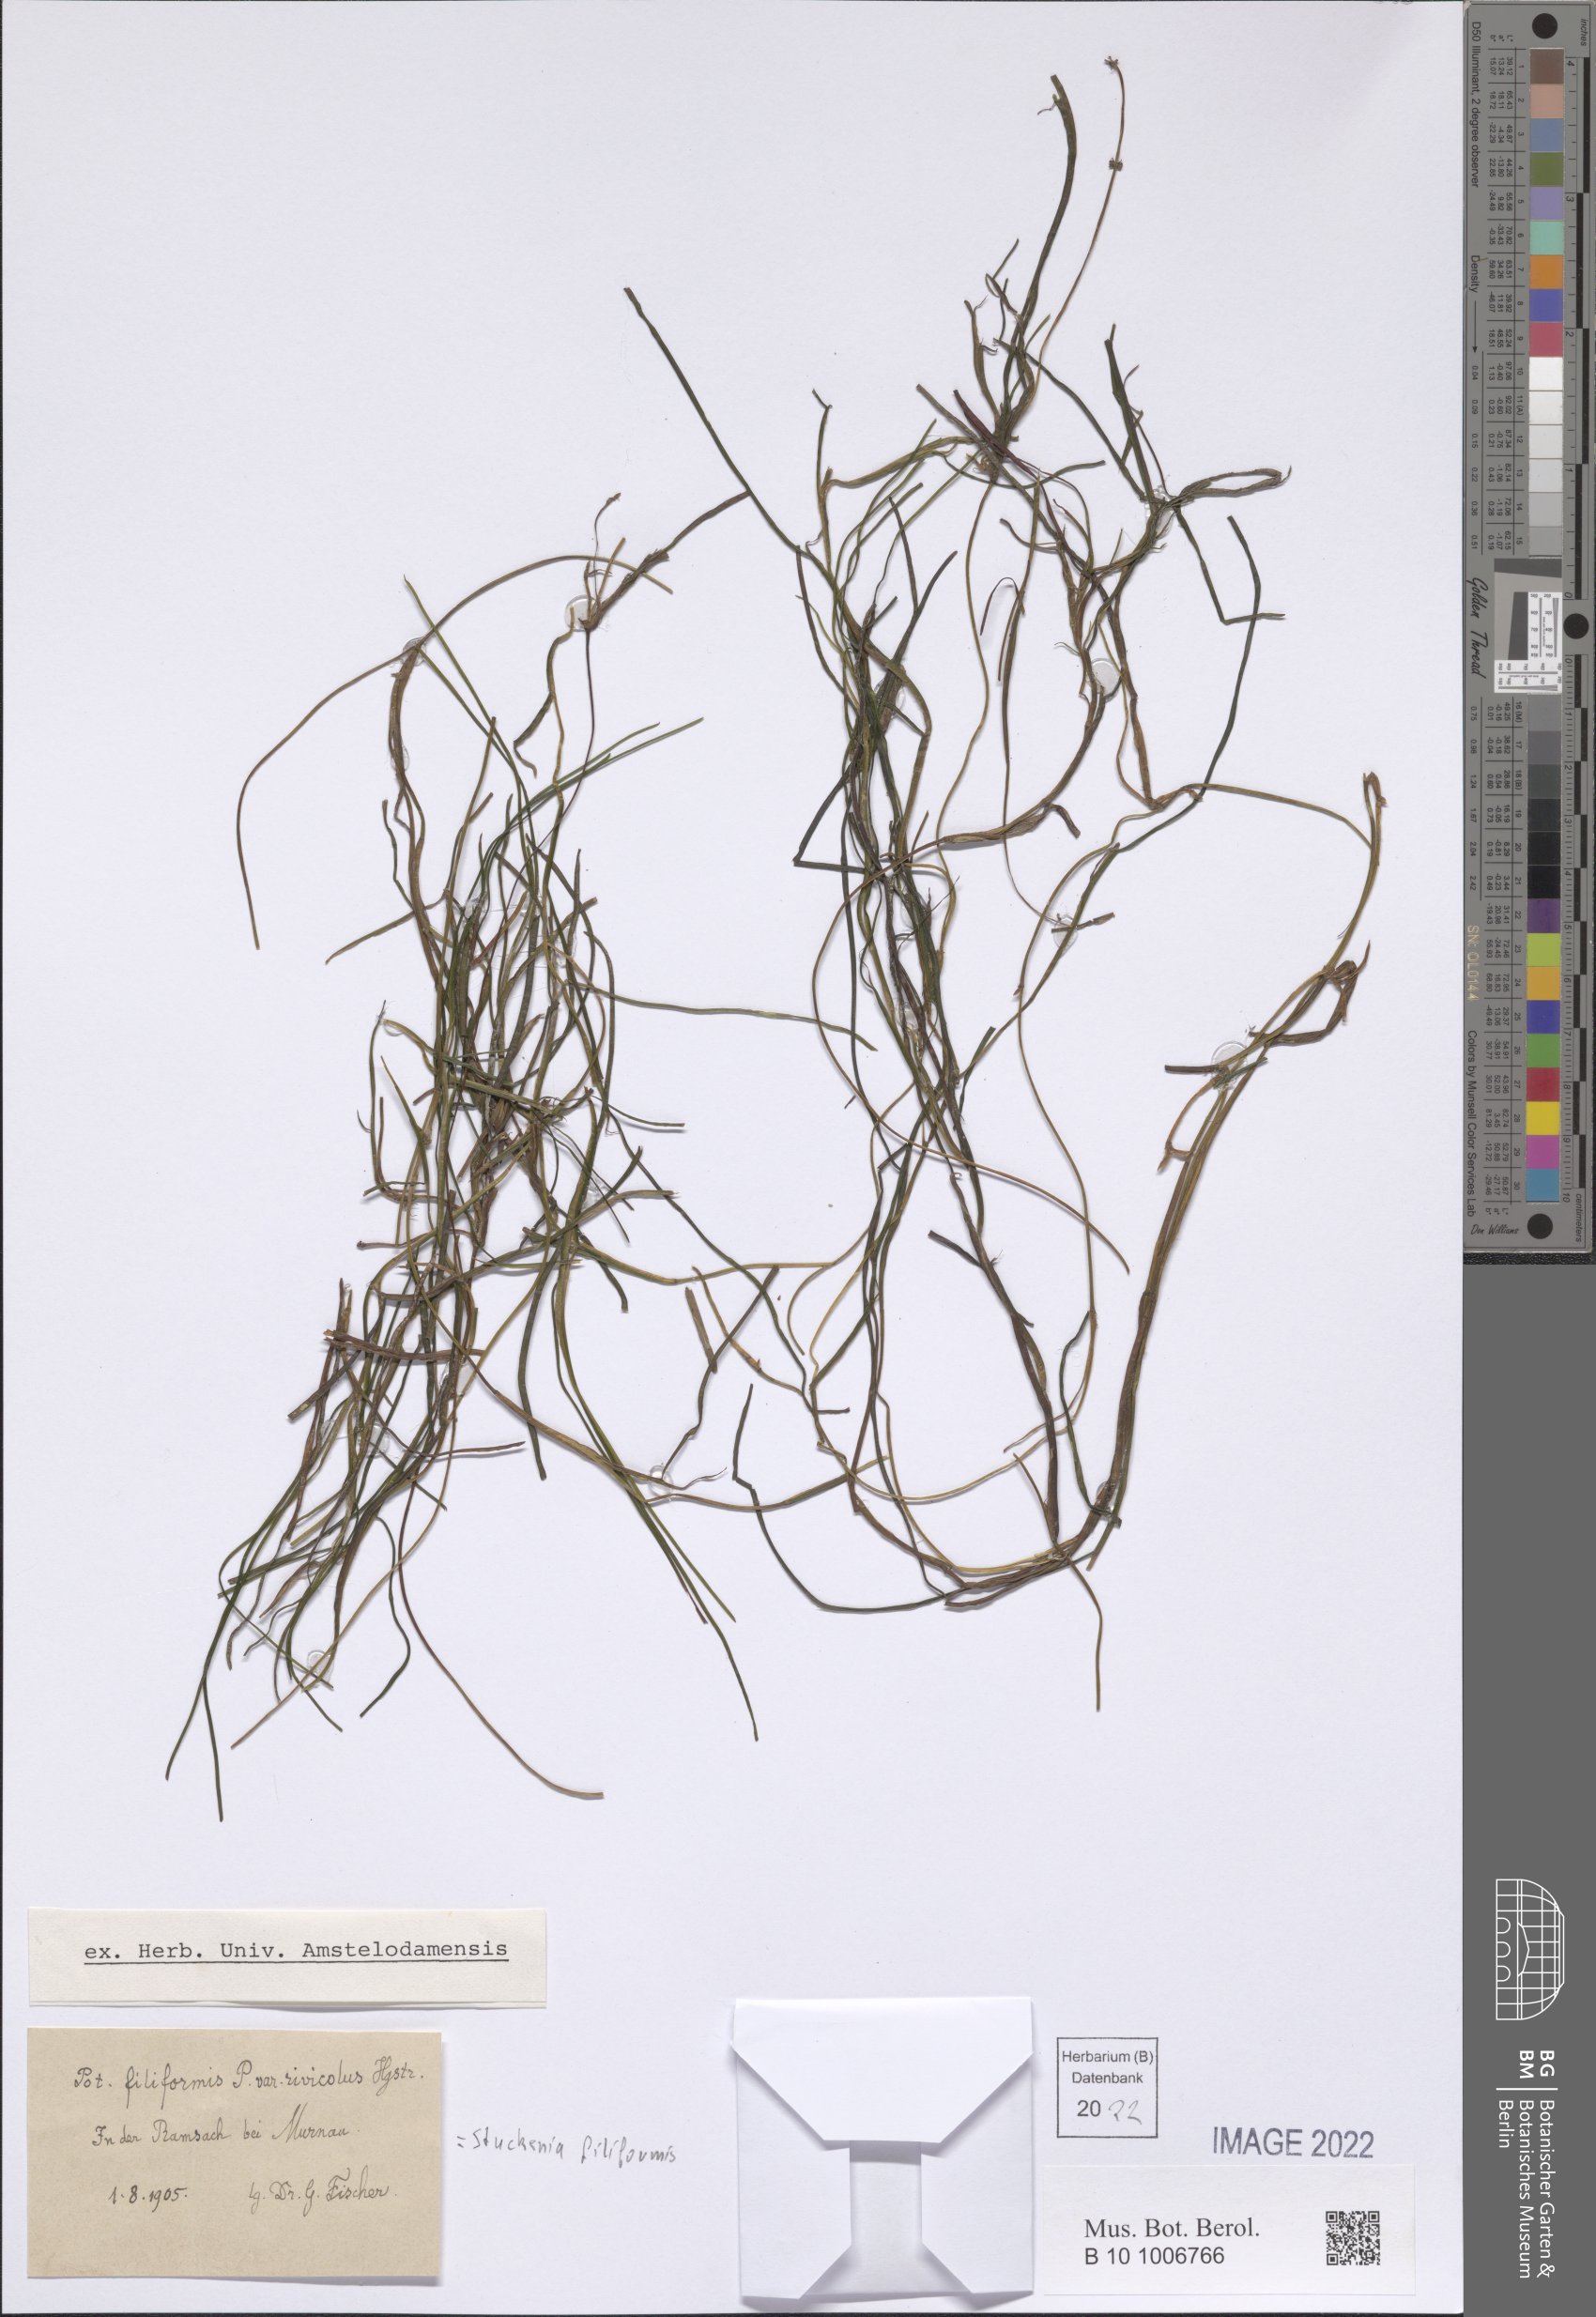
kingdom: Plantae
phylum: Tracheophyta
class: Liliopsida
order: Alismatales
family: Potamogetonaceae
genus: Stuckenia
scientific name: Stuckenia filiformis
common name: Alpine thread-leaved pondweed
